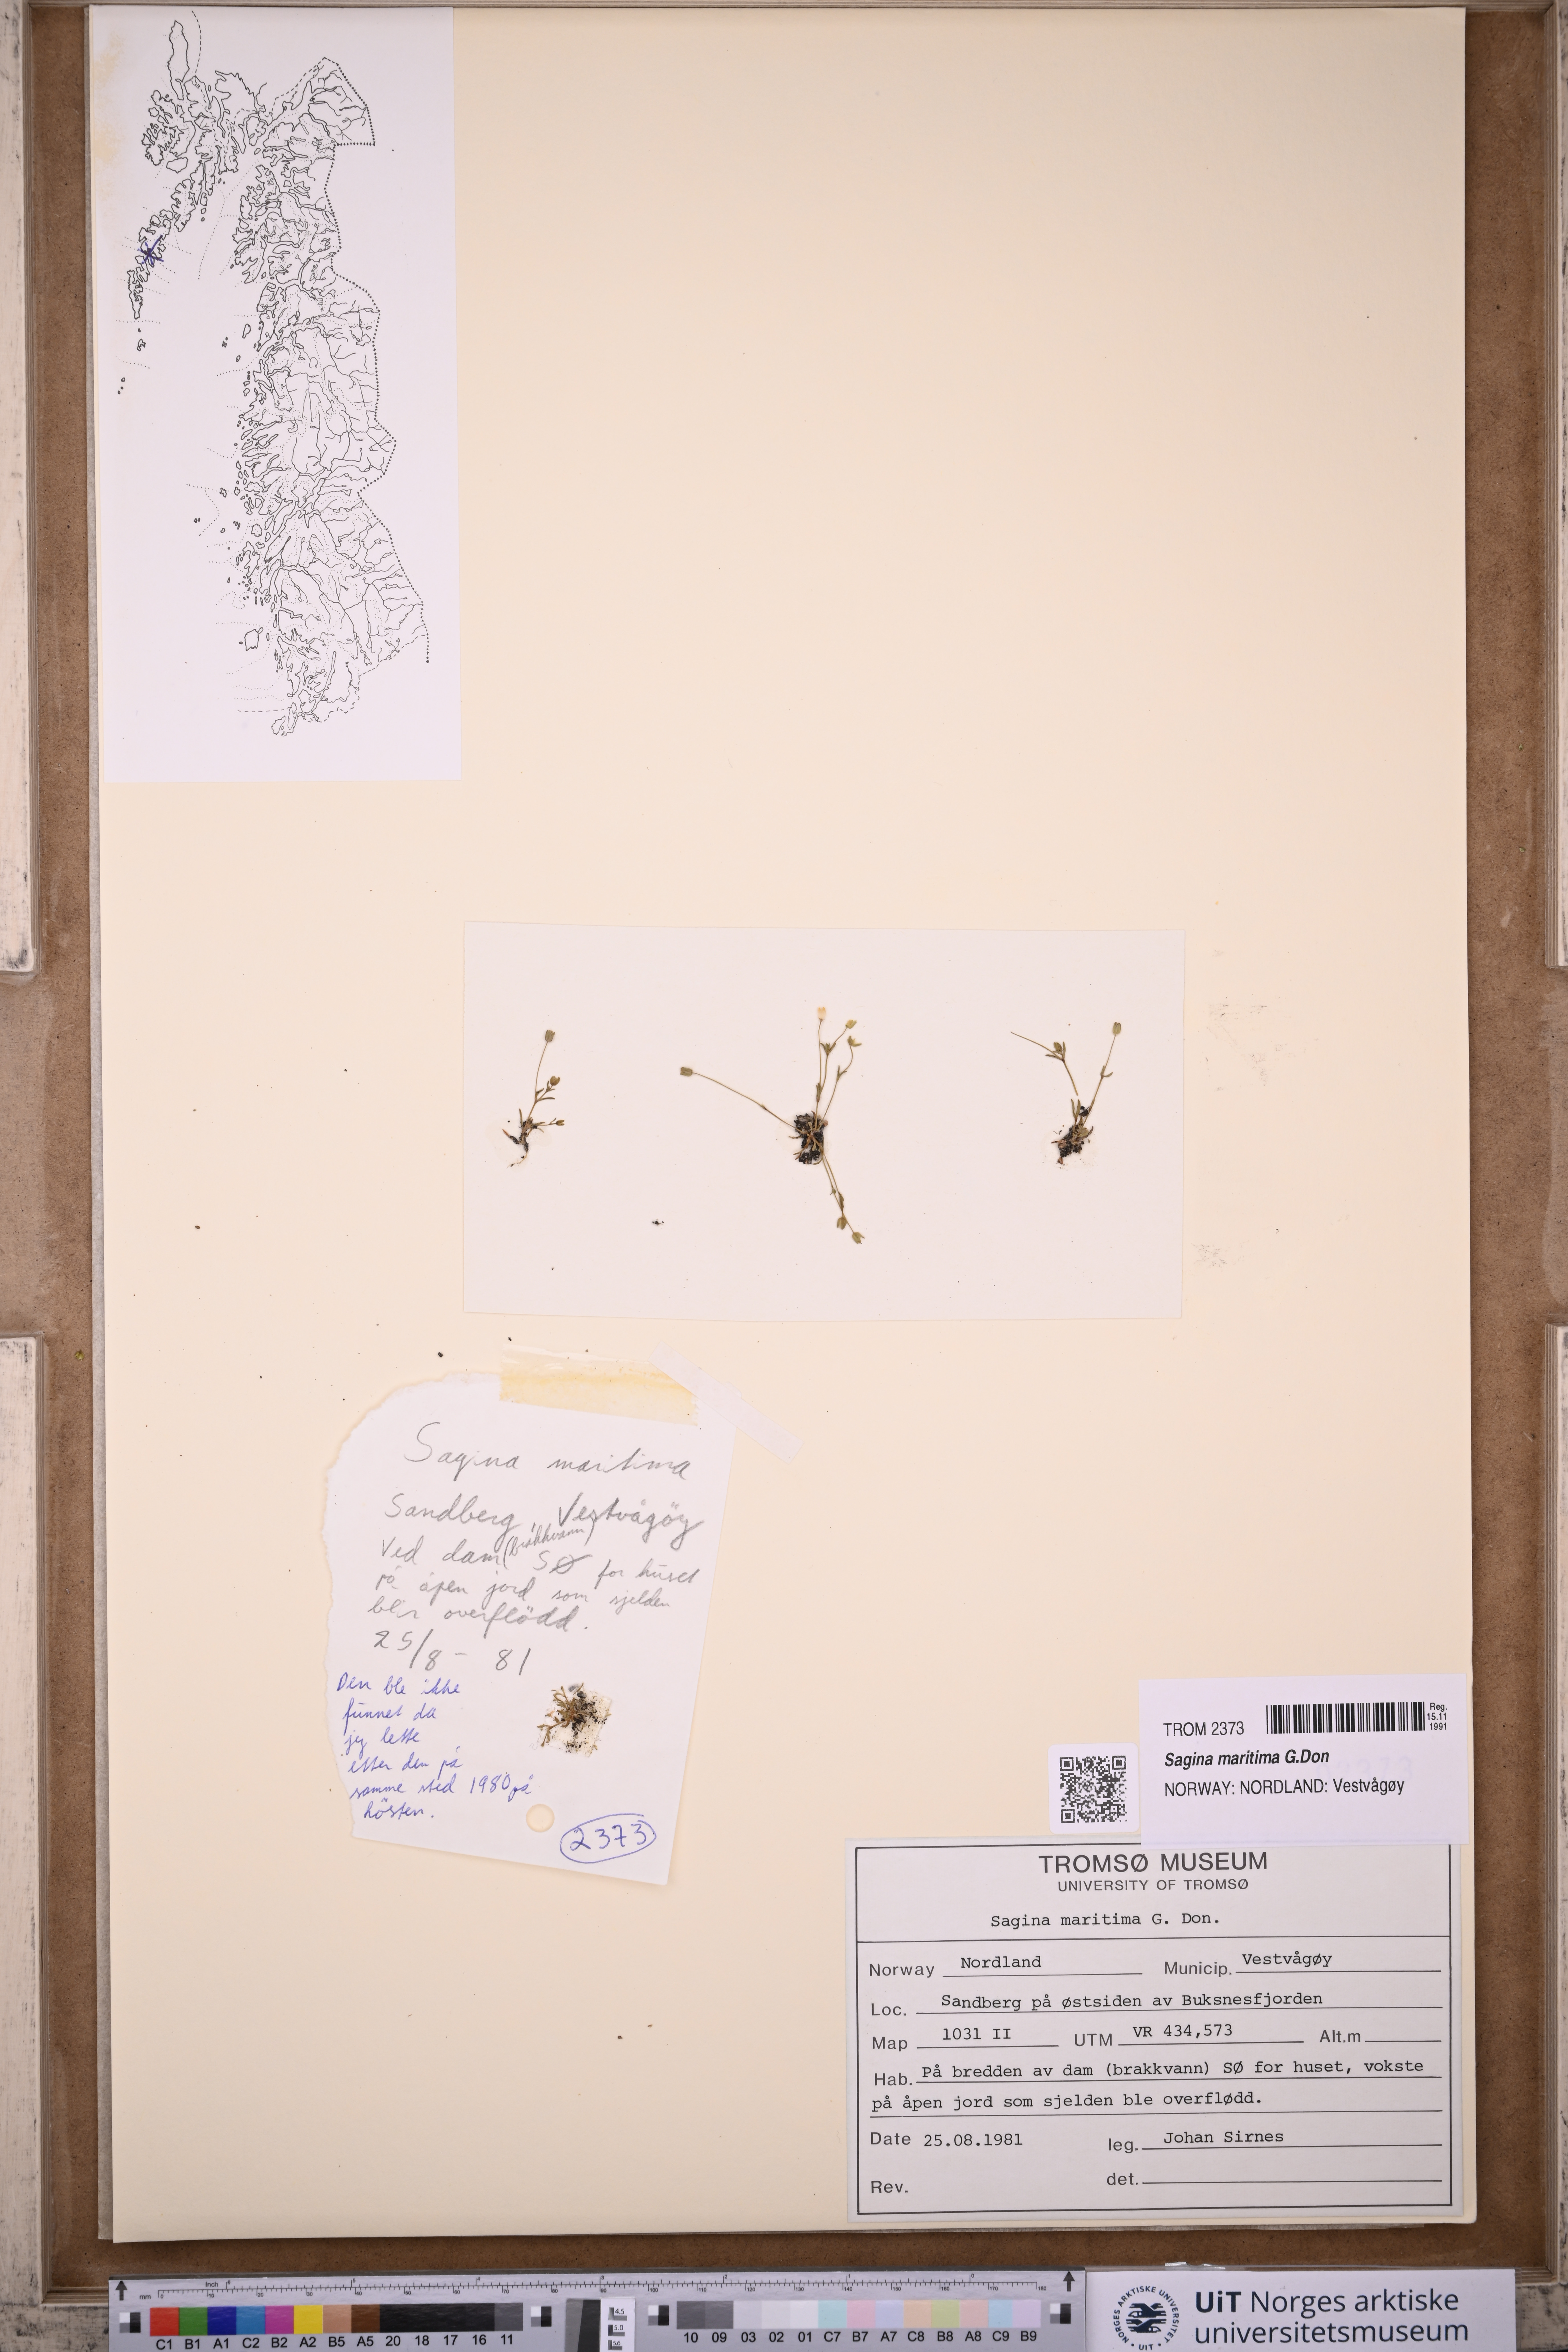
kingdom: Plantae
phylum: Tracheophyta
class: Magnoliopsida
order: Caryophyllales
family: Caryophyllaceae
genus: Sagina
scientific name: Sagina maritima
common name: Sea pearlwort
